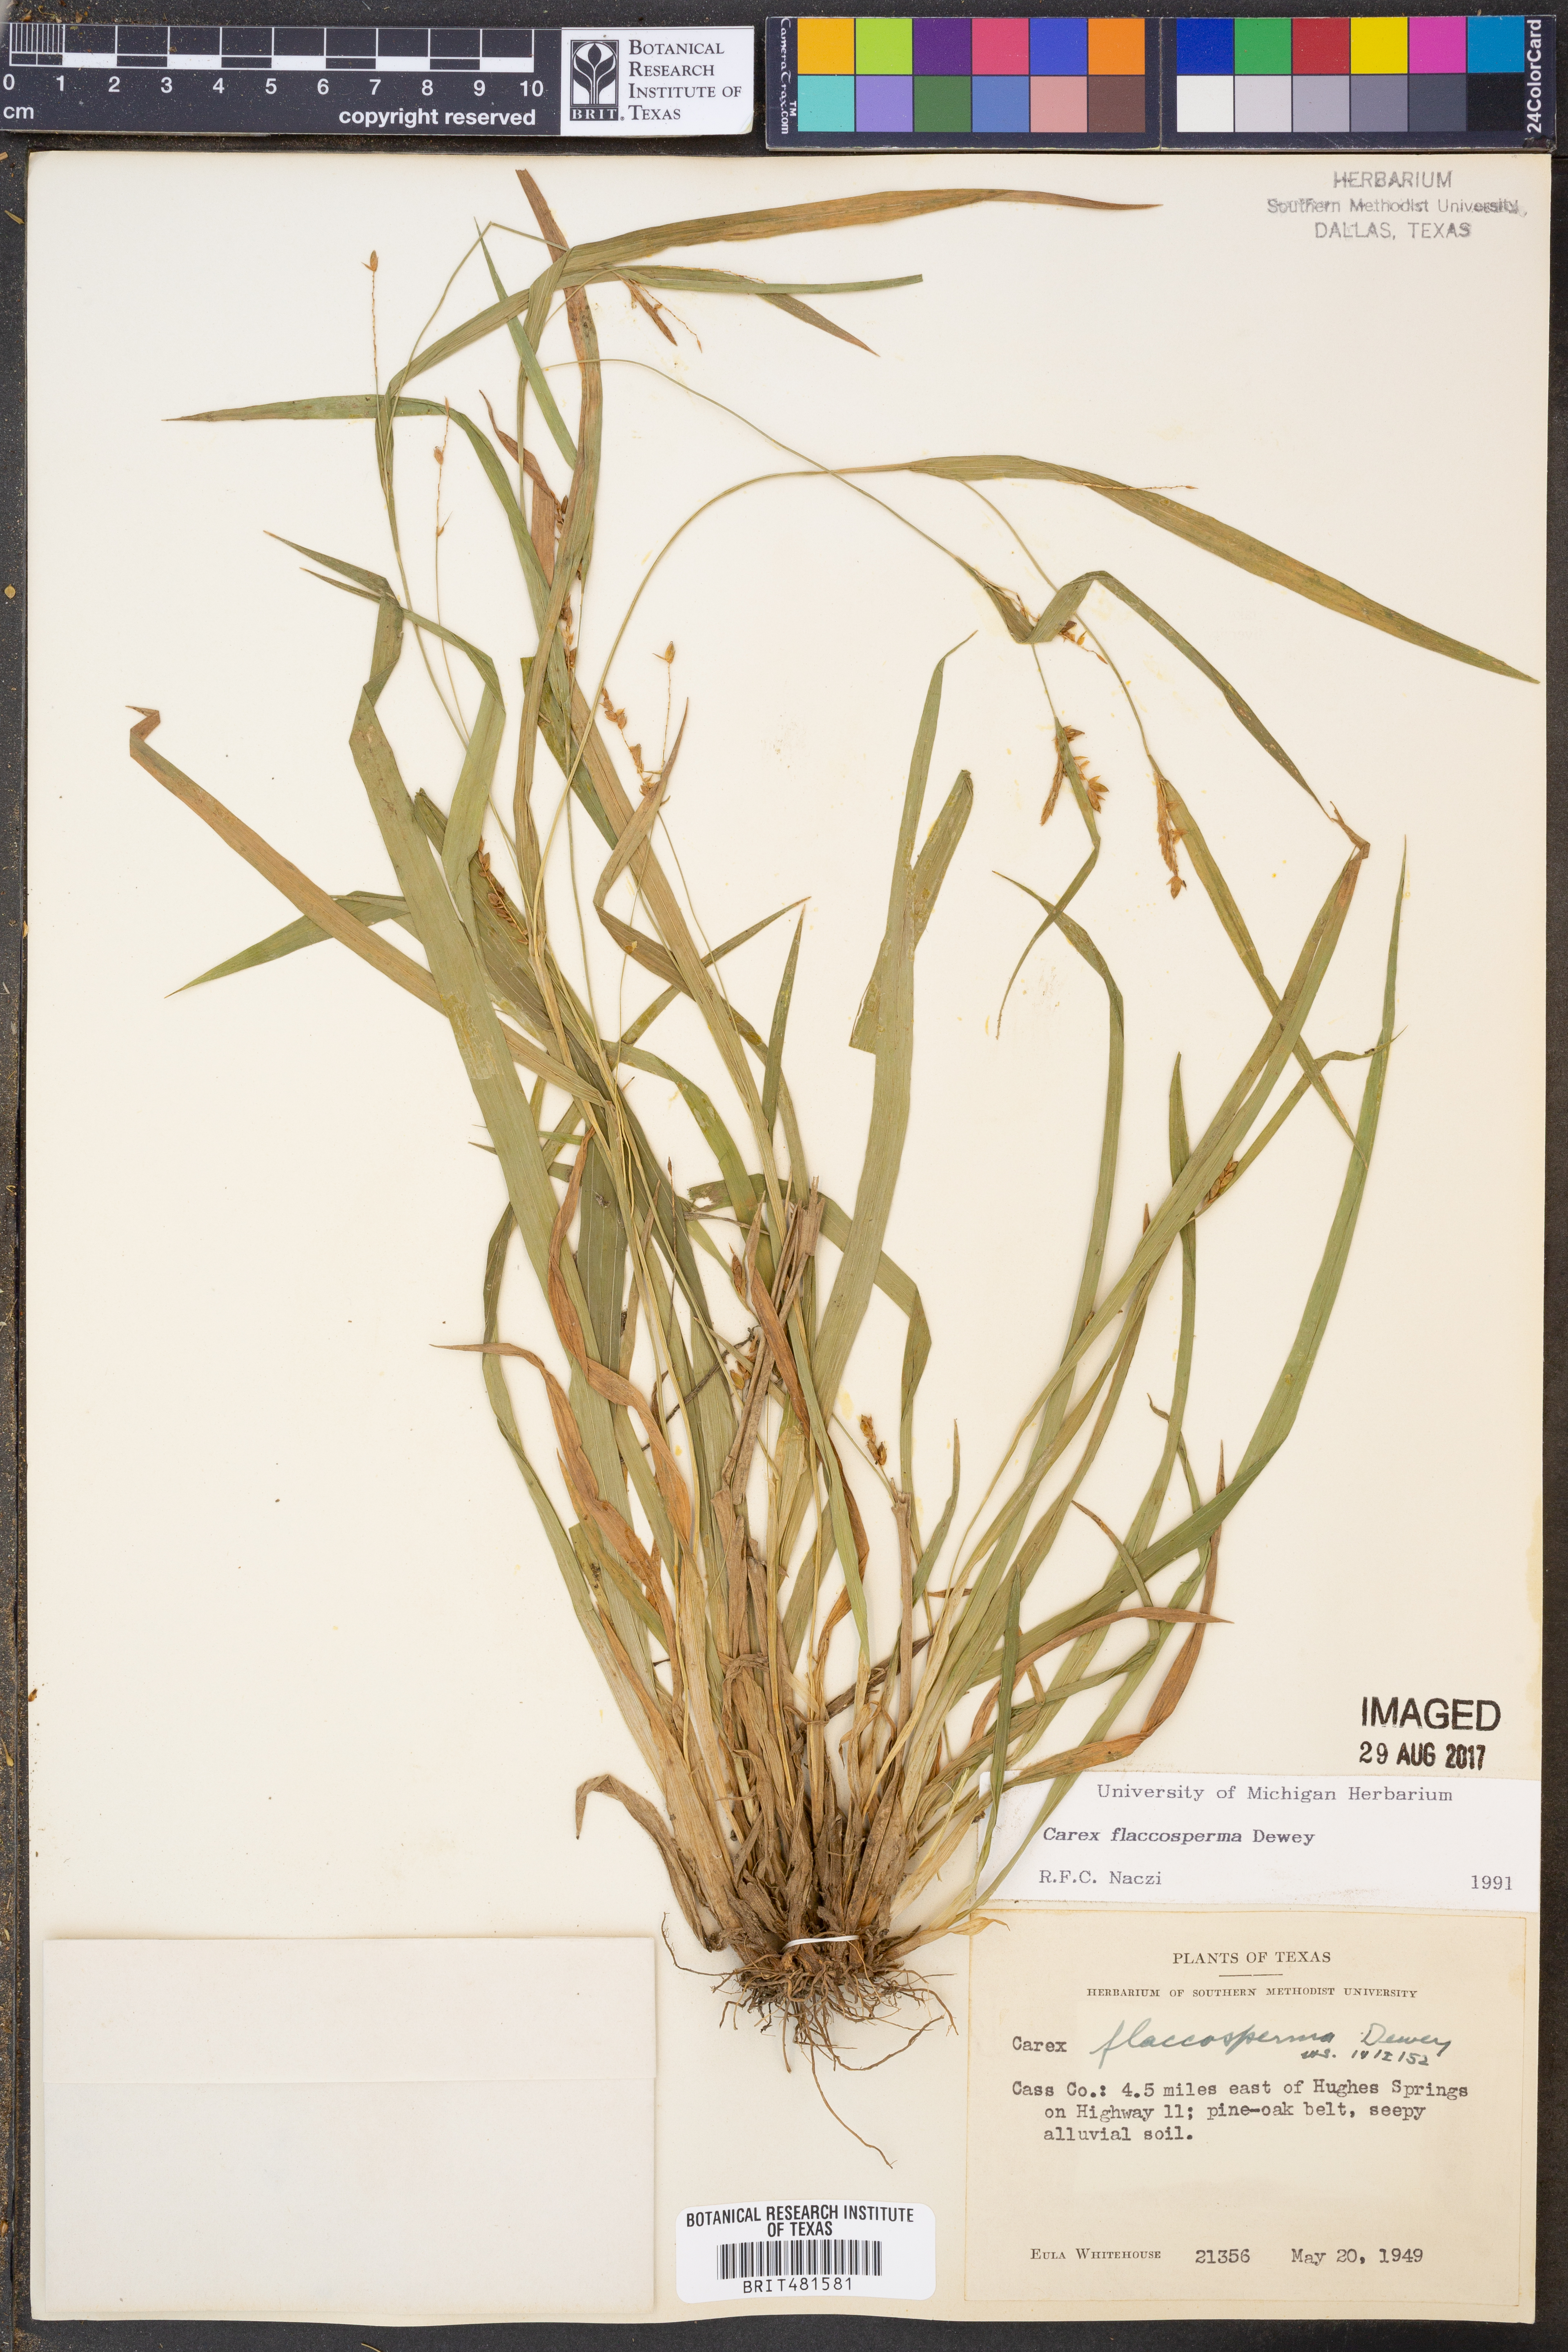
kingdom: Plantae
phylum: Tracheophyta
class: Liliopsida
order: Poales
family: Cyperaceae
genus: Carex
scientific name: Carex flaccosperma
